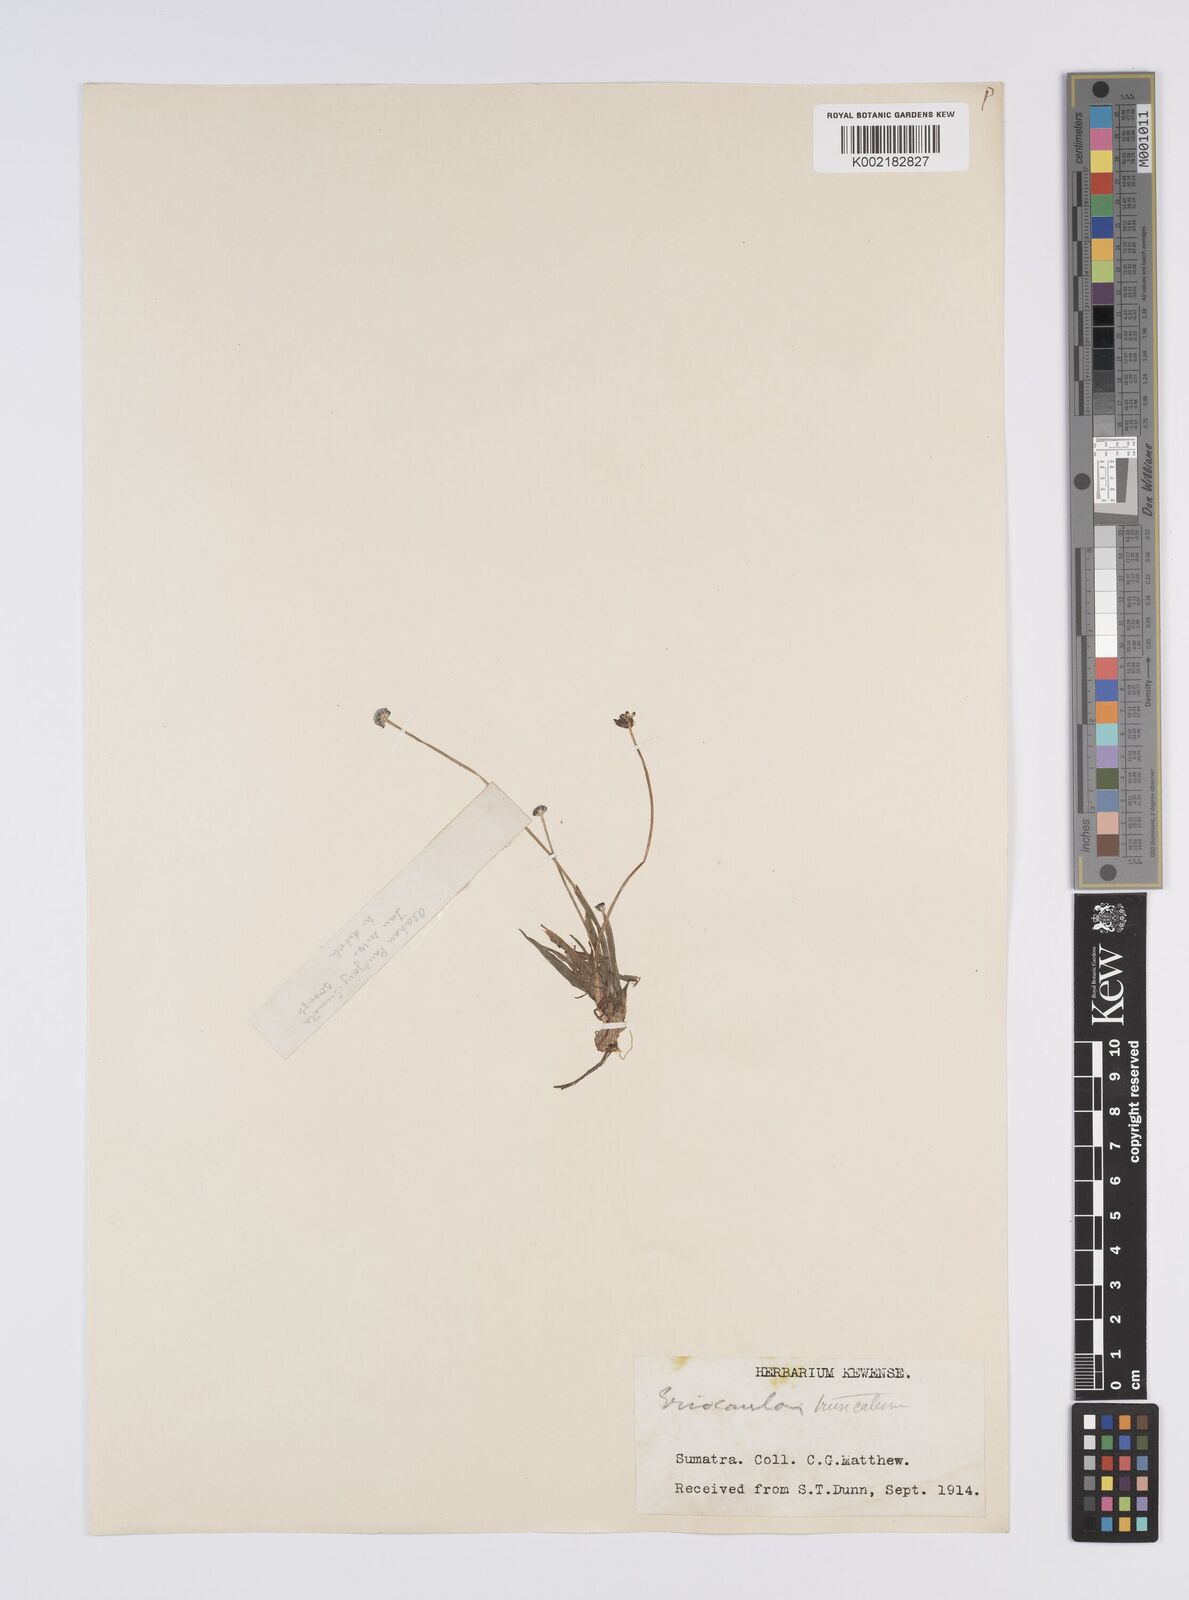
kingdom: Plantae
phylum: Tracheophyta
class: Liliopsida
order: Poales
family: Eriocaulaceae
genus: Eriocaulon
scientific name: Eriocaulon truncatum
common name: Short pipe-wort
